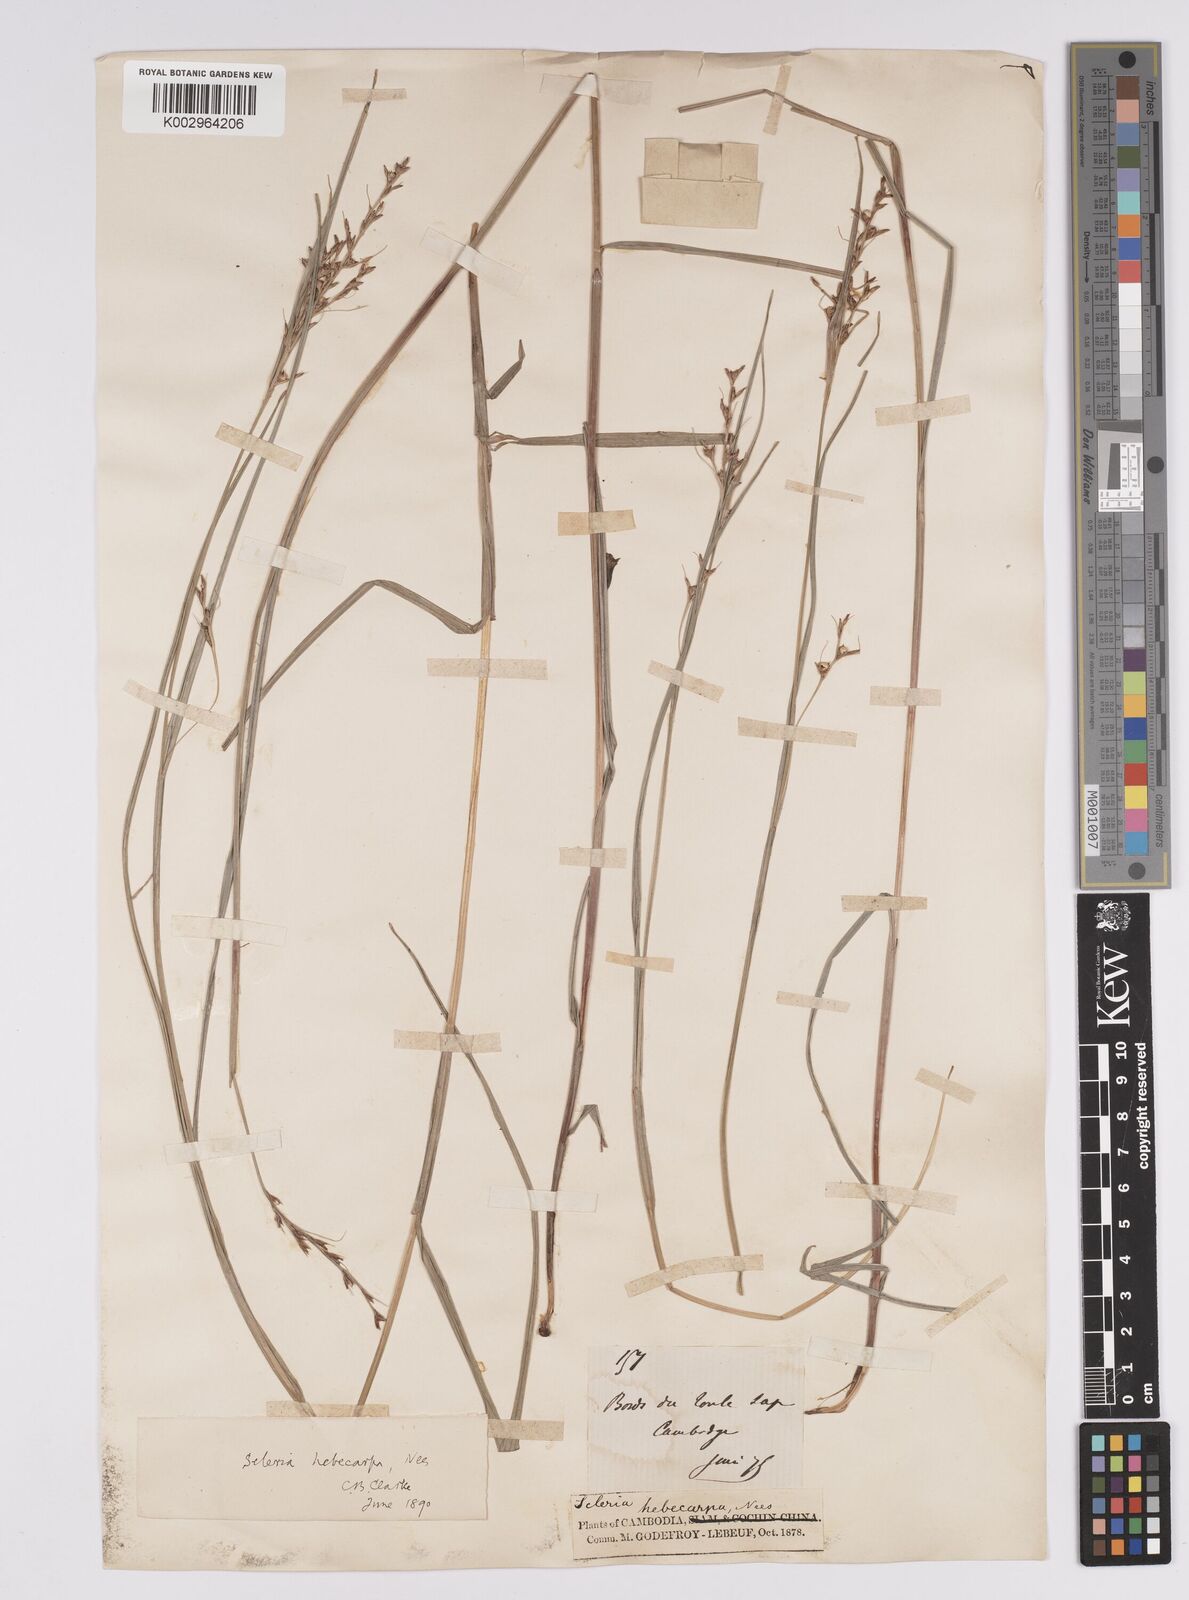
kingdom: Plantae
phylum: Tracheophyta
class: Liliopsida
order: Poales
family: Cyperaceae
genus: Scleria
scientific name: Scleria levis
